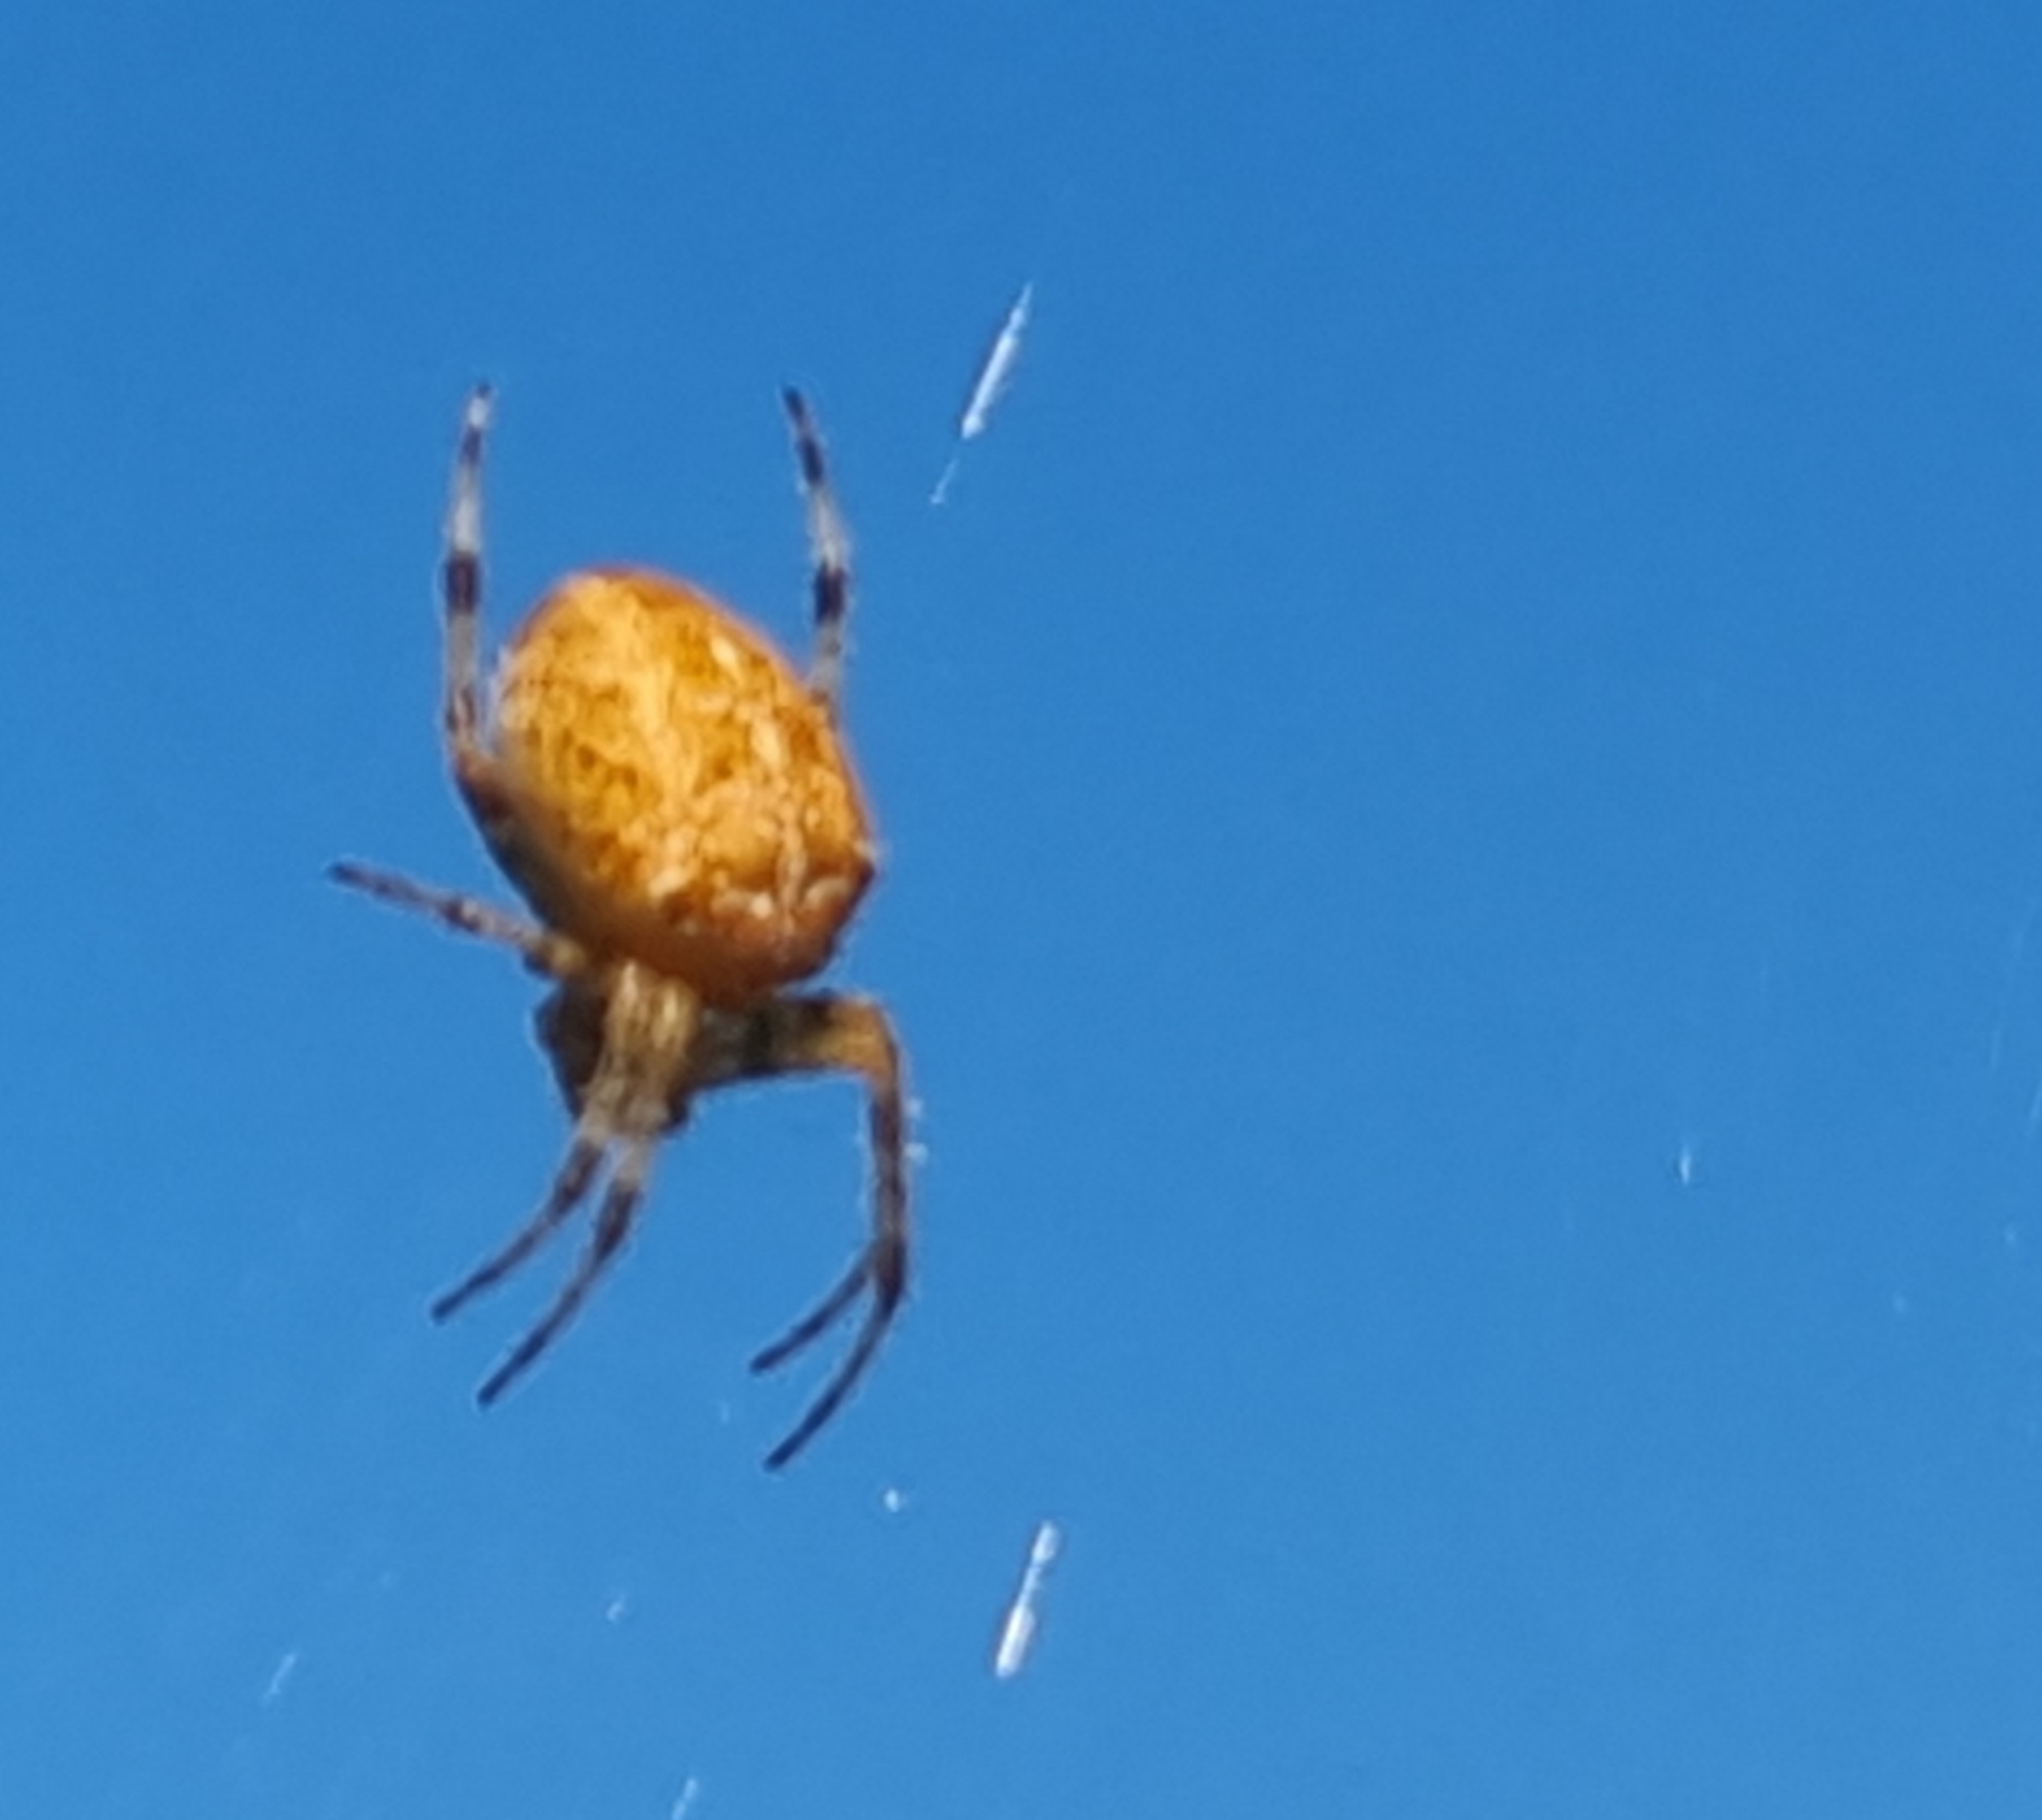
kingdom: Animalia
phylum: Arthropoda
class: Arachnida
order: Araneae
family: Araneidae
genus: Araneus
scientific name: Araneus diadematus
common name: Korsedderkop
